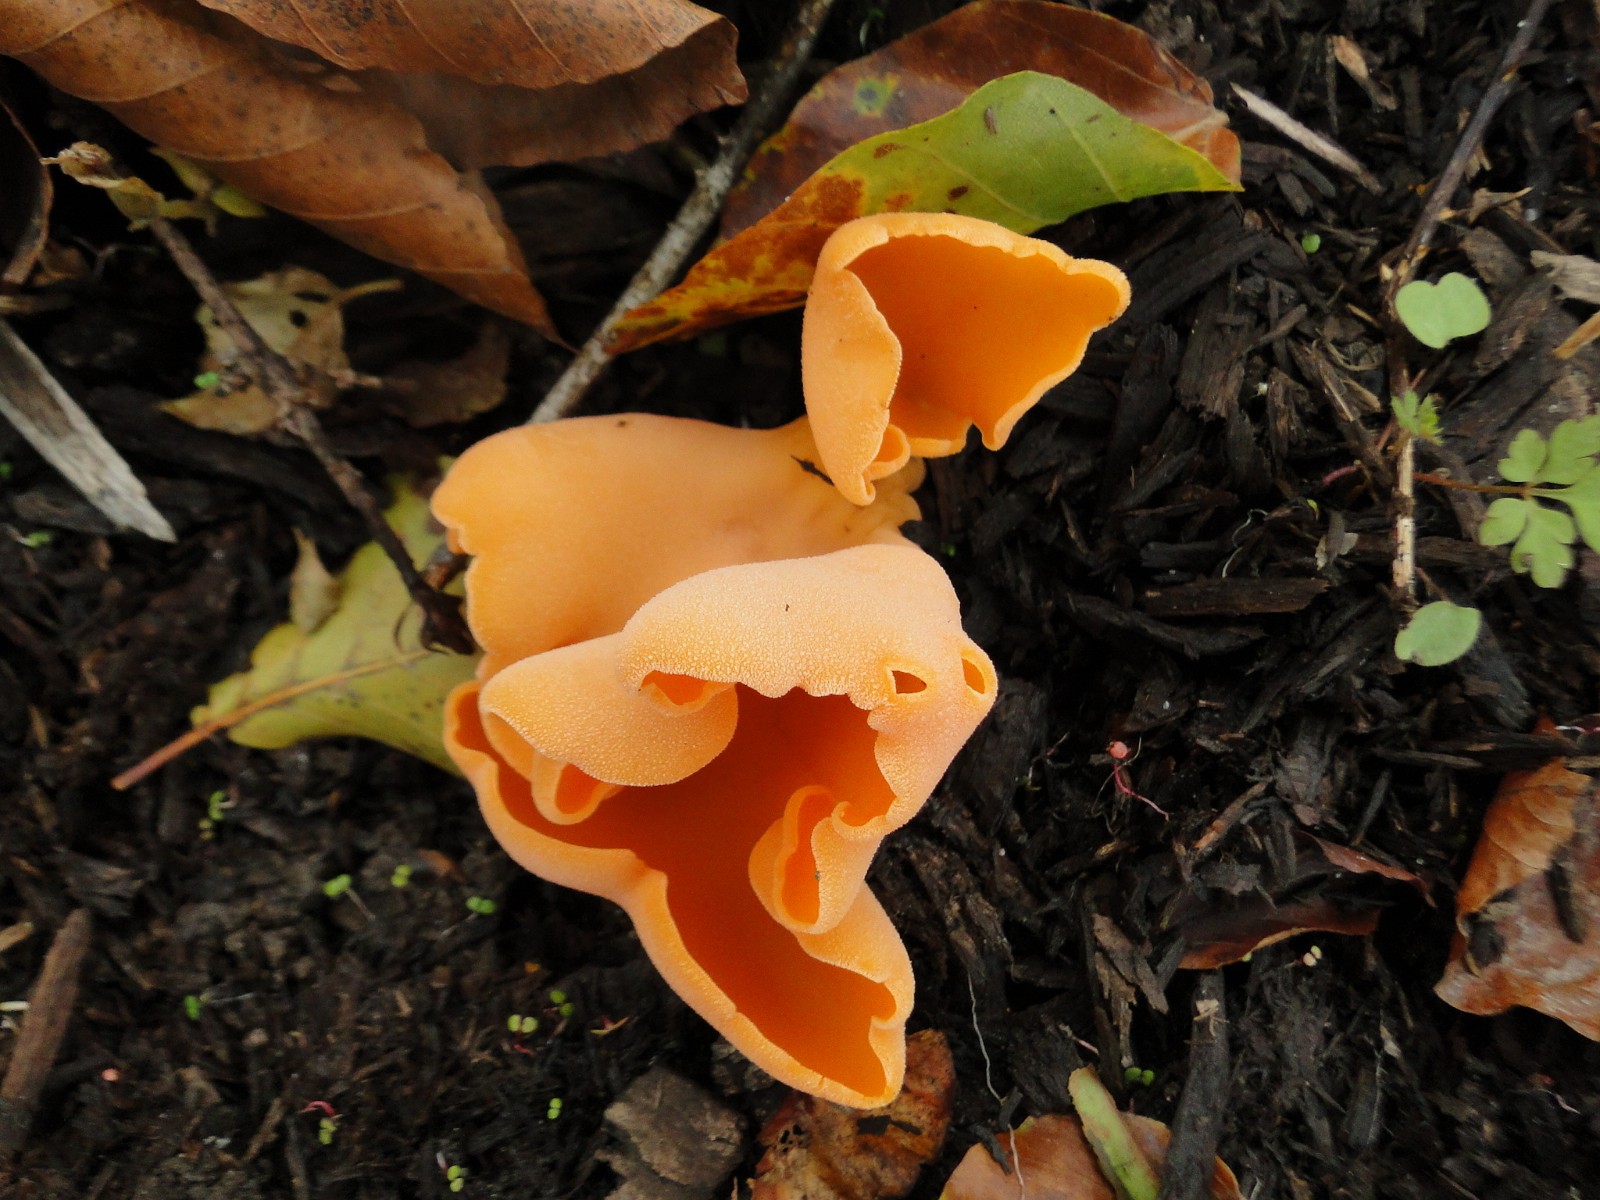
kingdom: Fungi
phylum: Ascomycota
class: Pezizomycetes
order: Pezizales
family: Pyronemataceae
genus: Aleuria
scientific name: Aleuria aurantia
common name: almindelig orangebæger
